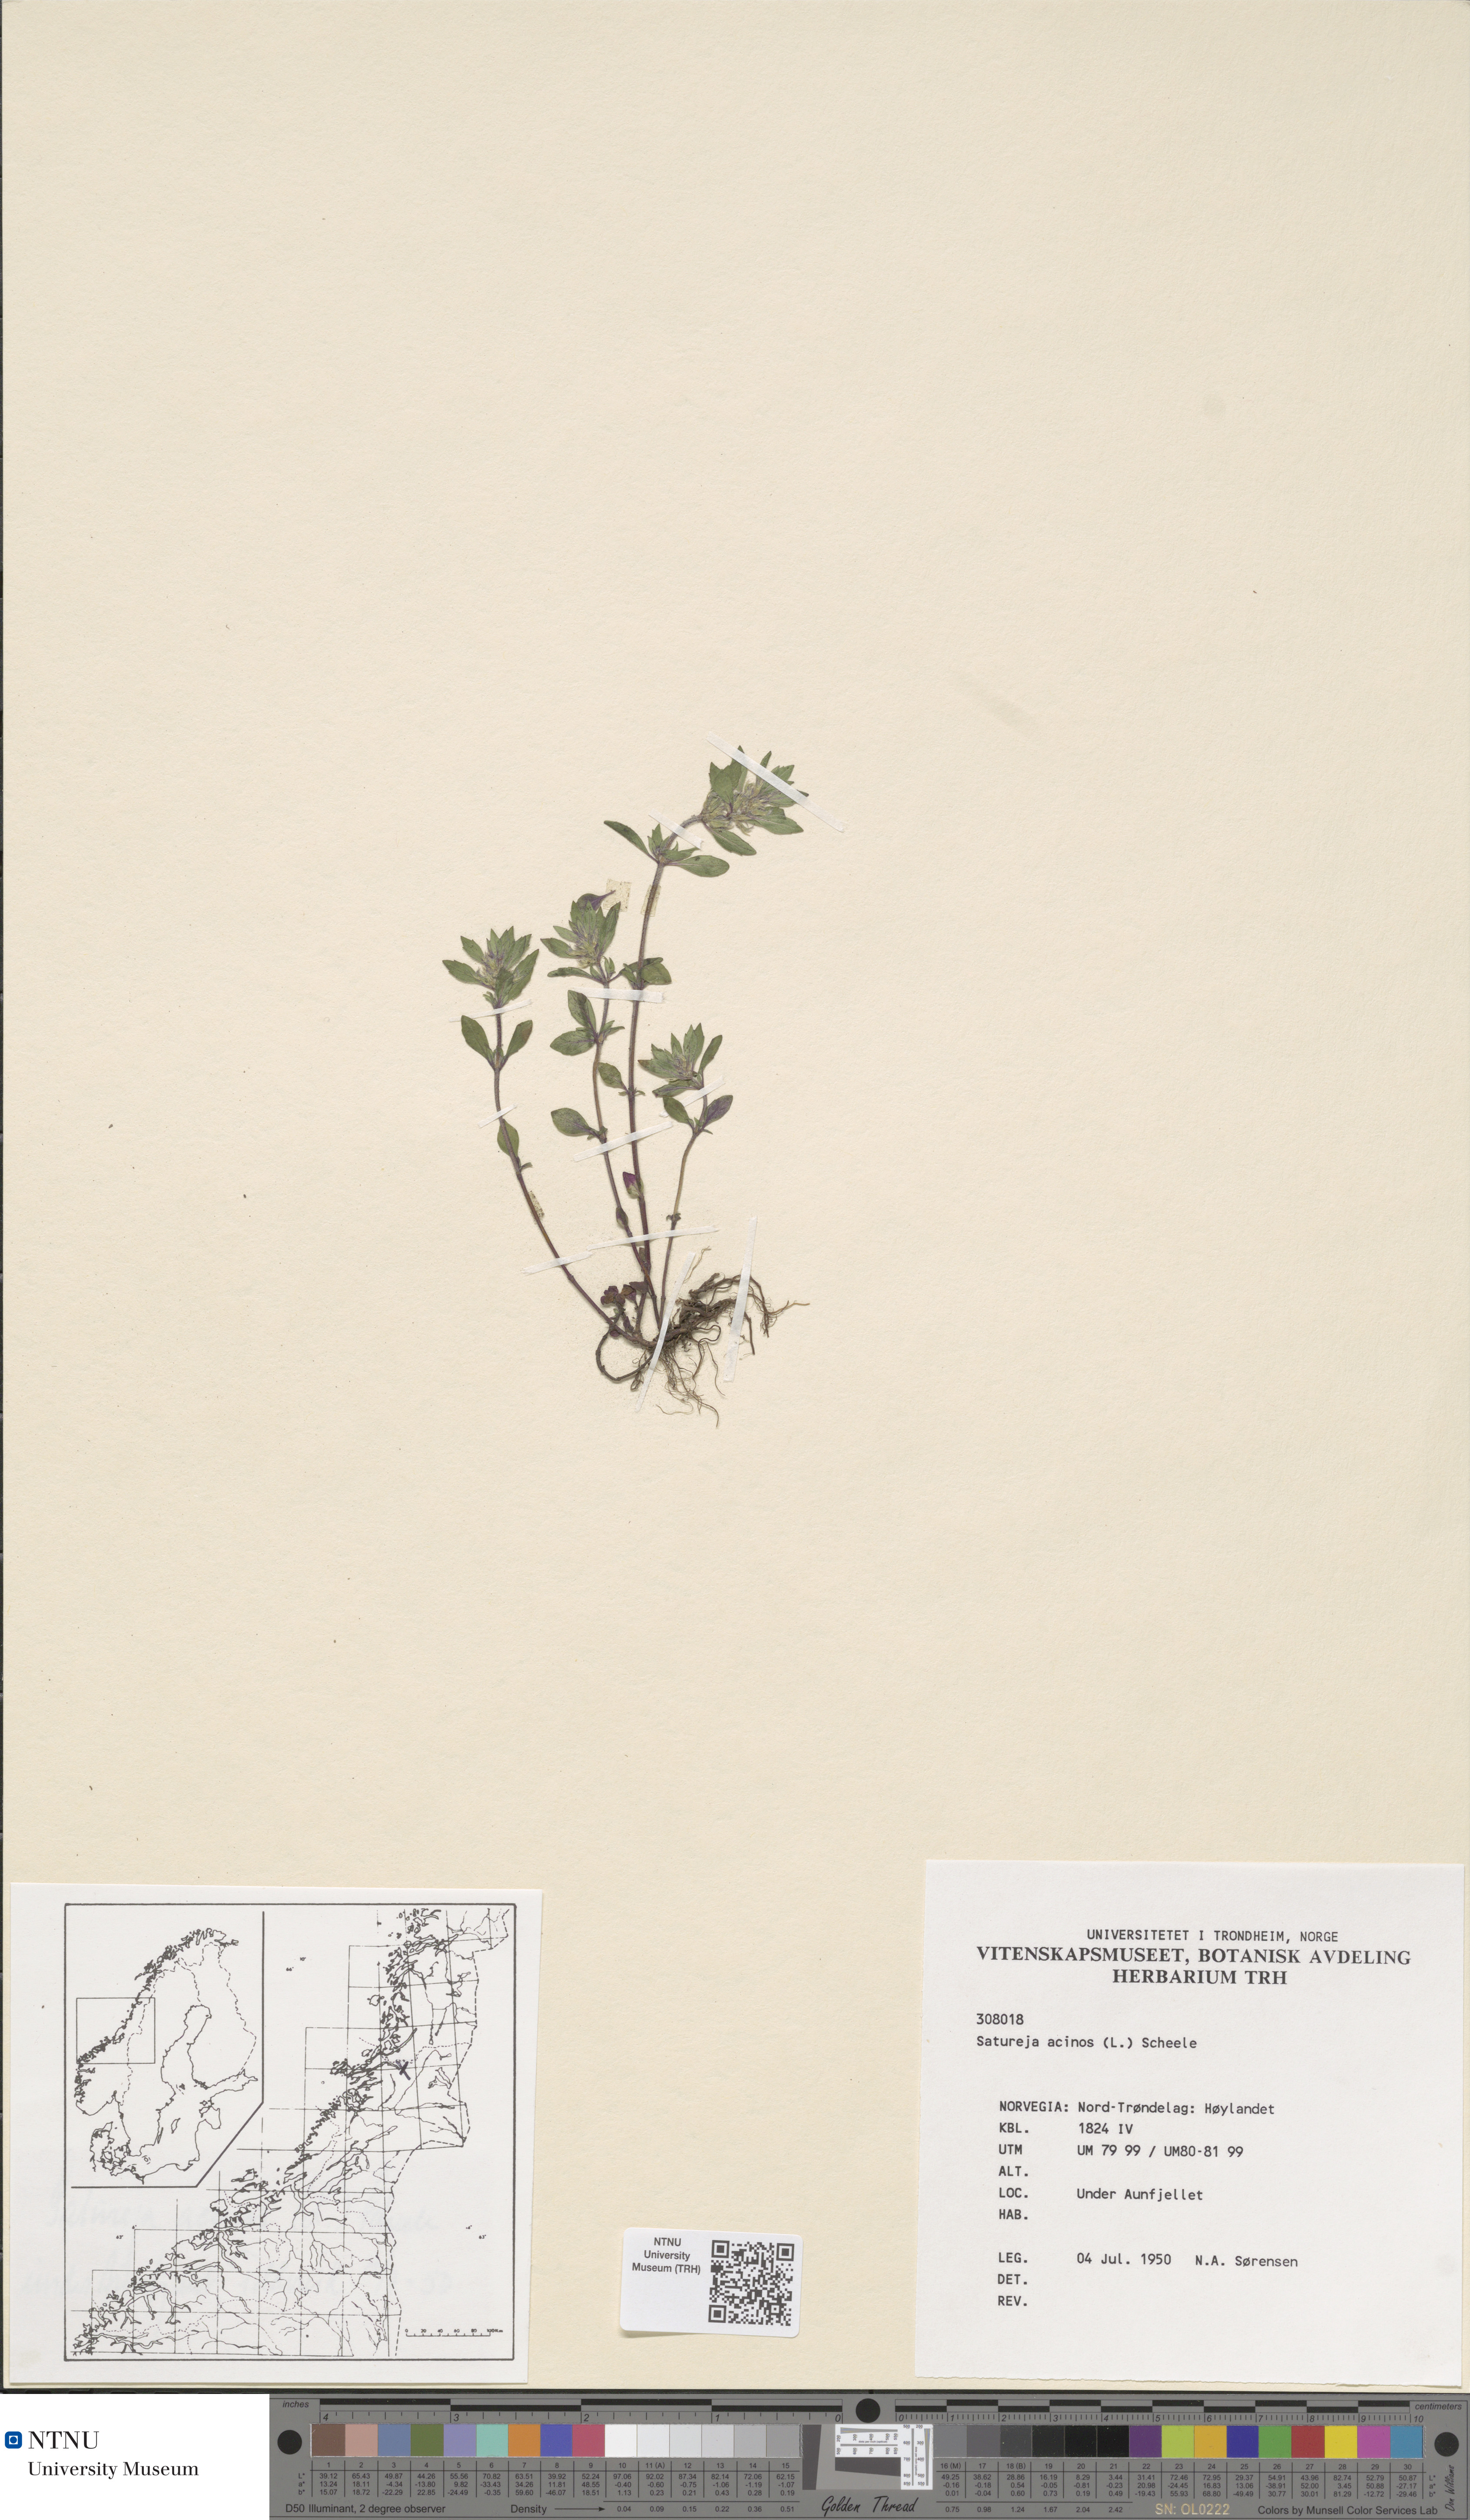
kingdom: Plantae
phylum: Tracheophyta
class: Magnoliopsida
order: Lamiales
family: Lamiaceae
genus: Clinopodium
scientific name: Clinopodium acinos
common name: Basil thyme
